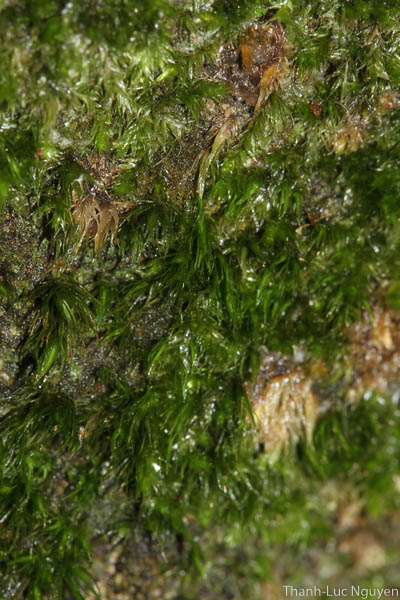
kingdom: Plantae
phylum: Bryophyta
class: Bryopsida
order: Dicranales
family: Dicranaceae
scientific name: Dicranaceae
